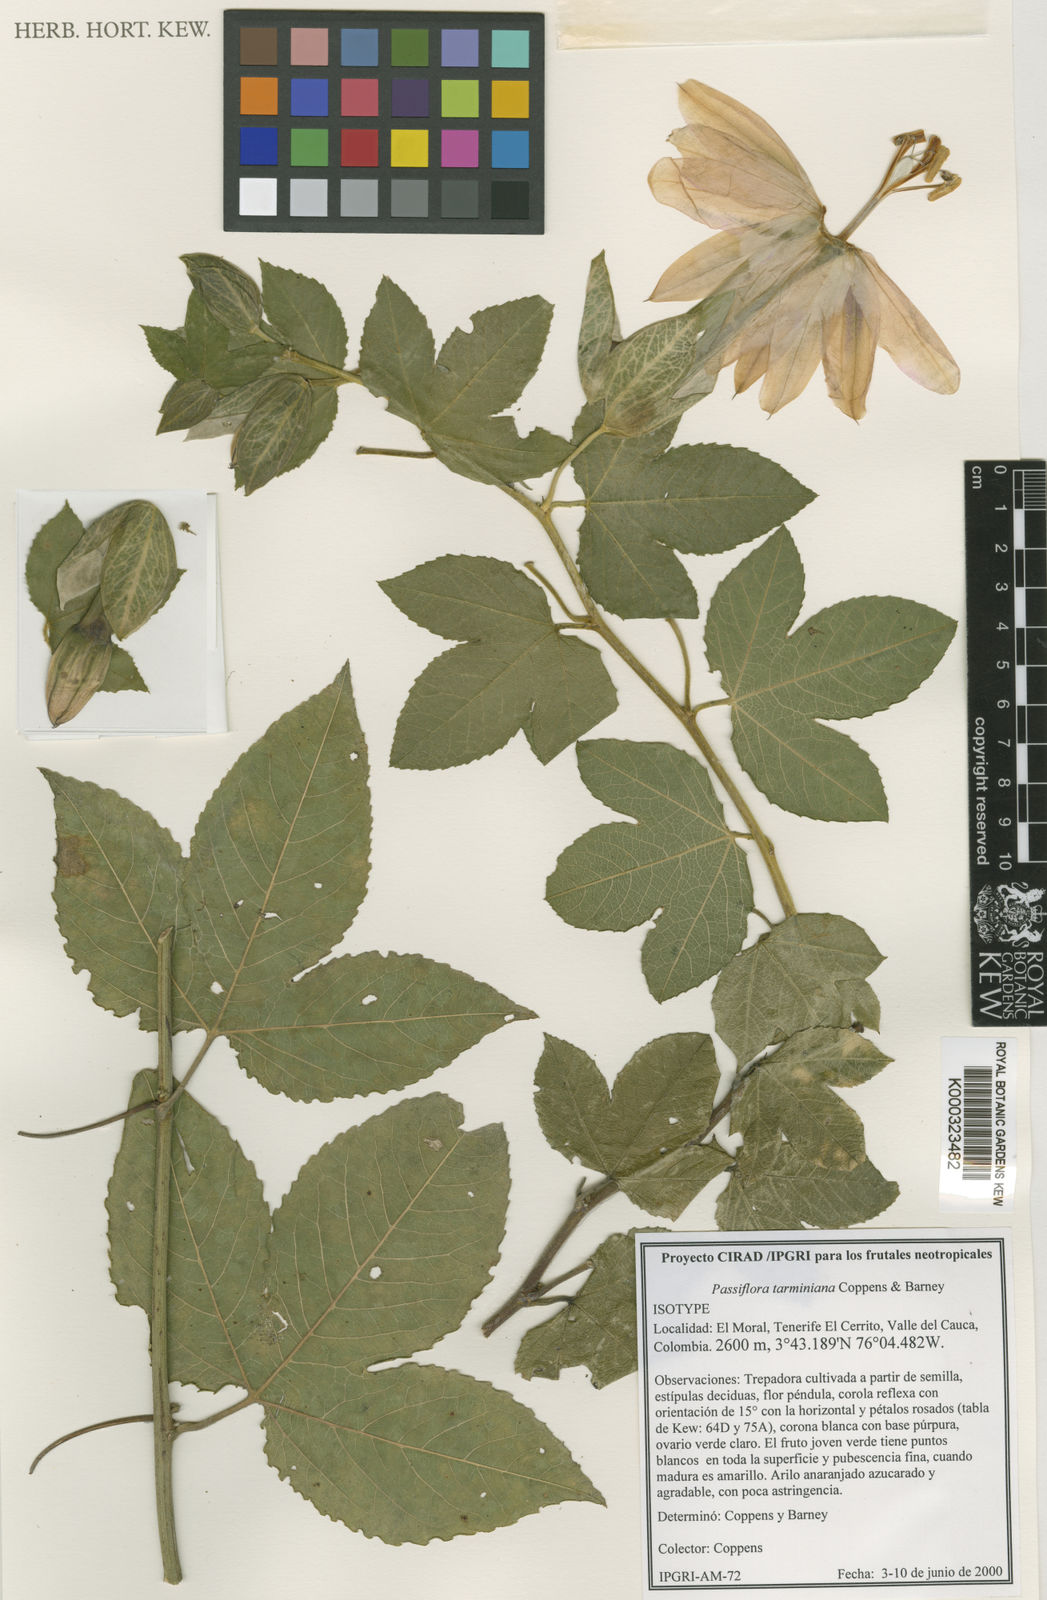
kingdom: Plantae
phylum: Tracheophyta
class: Magnoliopsida
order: Malpighiales
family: Passifloraceae
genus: Passiflora
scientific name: Passiflora tarminiana
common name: Banana poka
